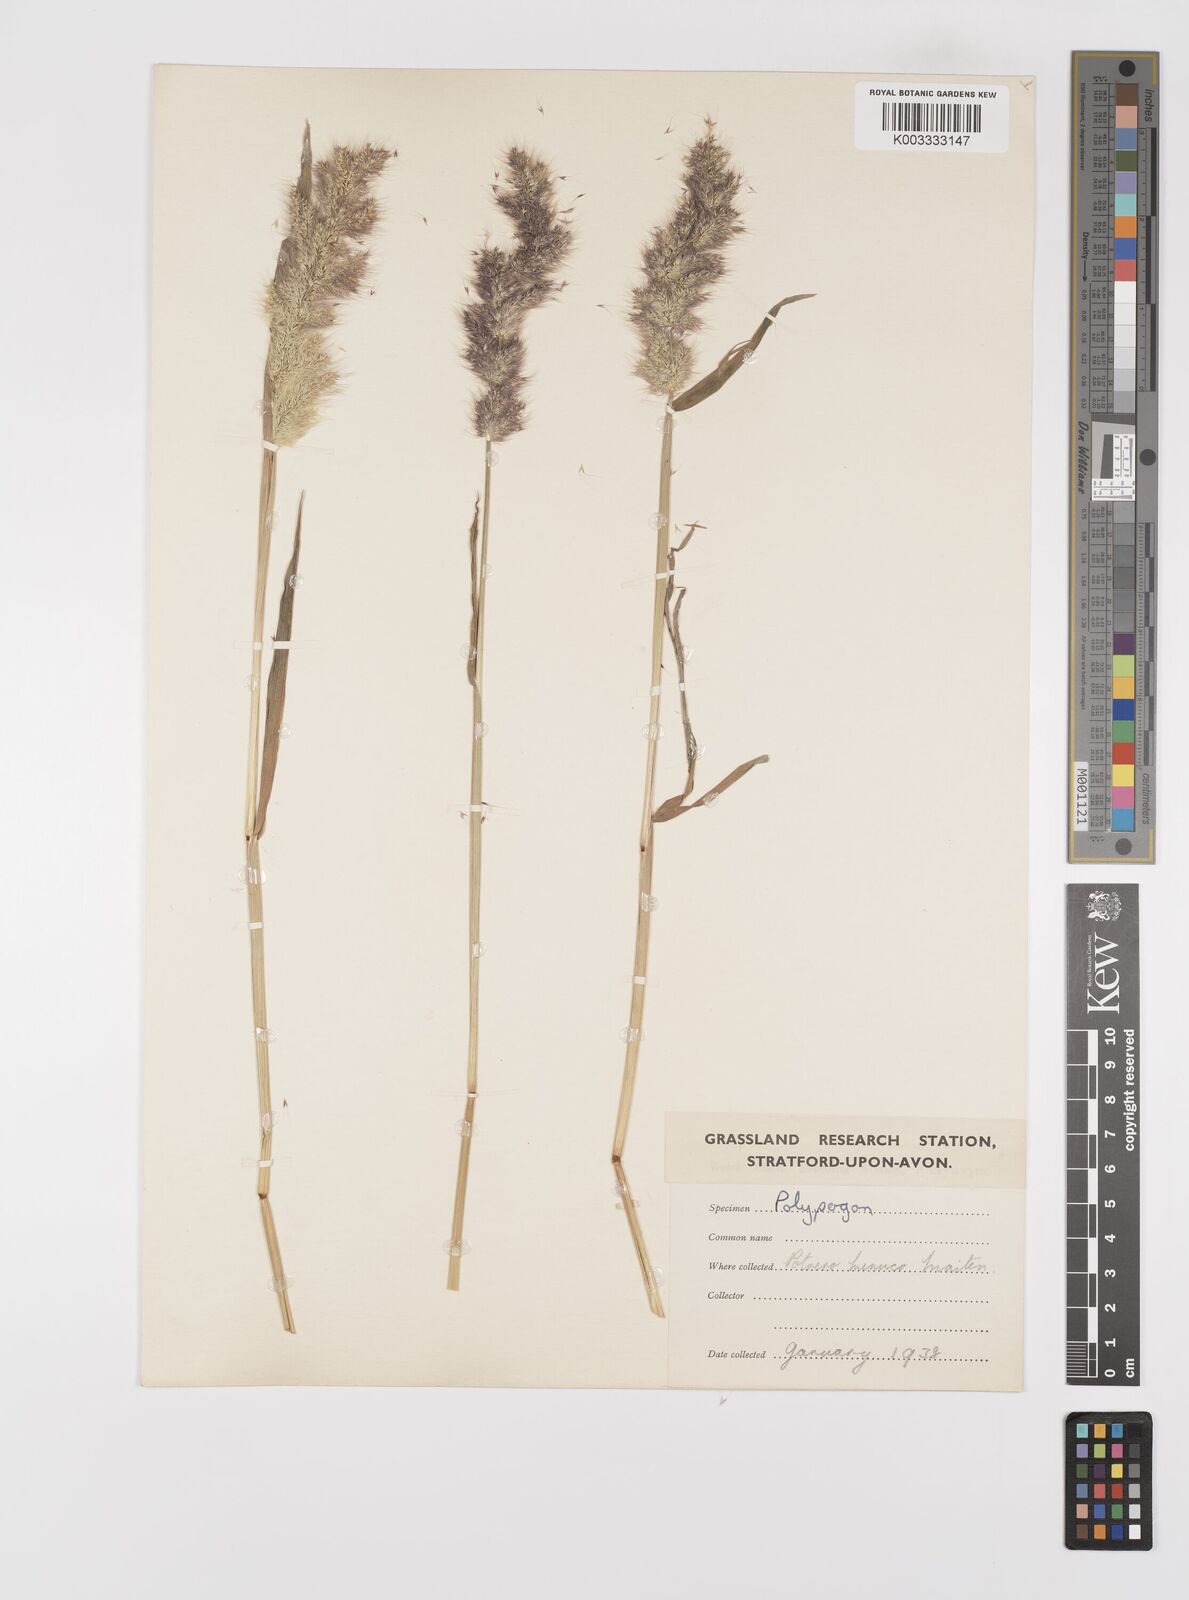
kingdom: Plantae
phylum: Tracheophyta
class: Liliopsida
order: Poales
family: Poaceae
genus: Polypogon
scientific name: Polypogon australis
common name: Chilean rabbitsfoot grass
